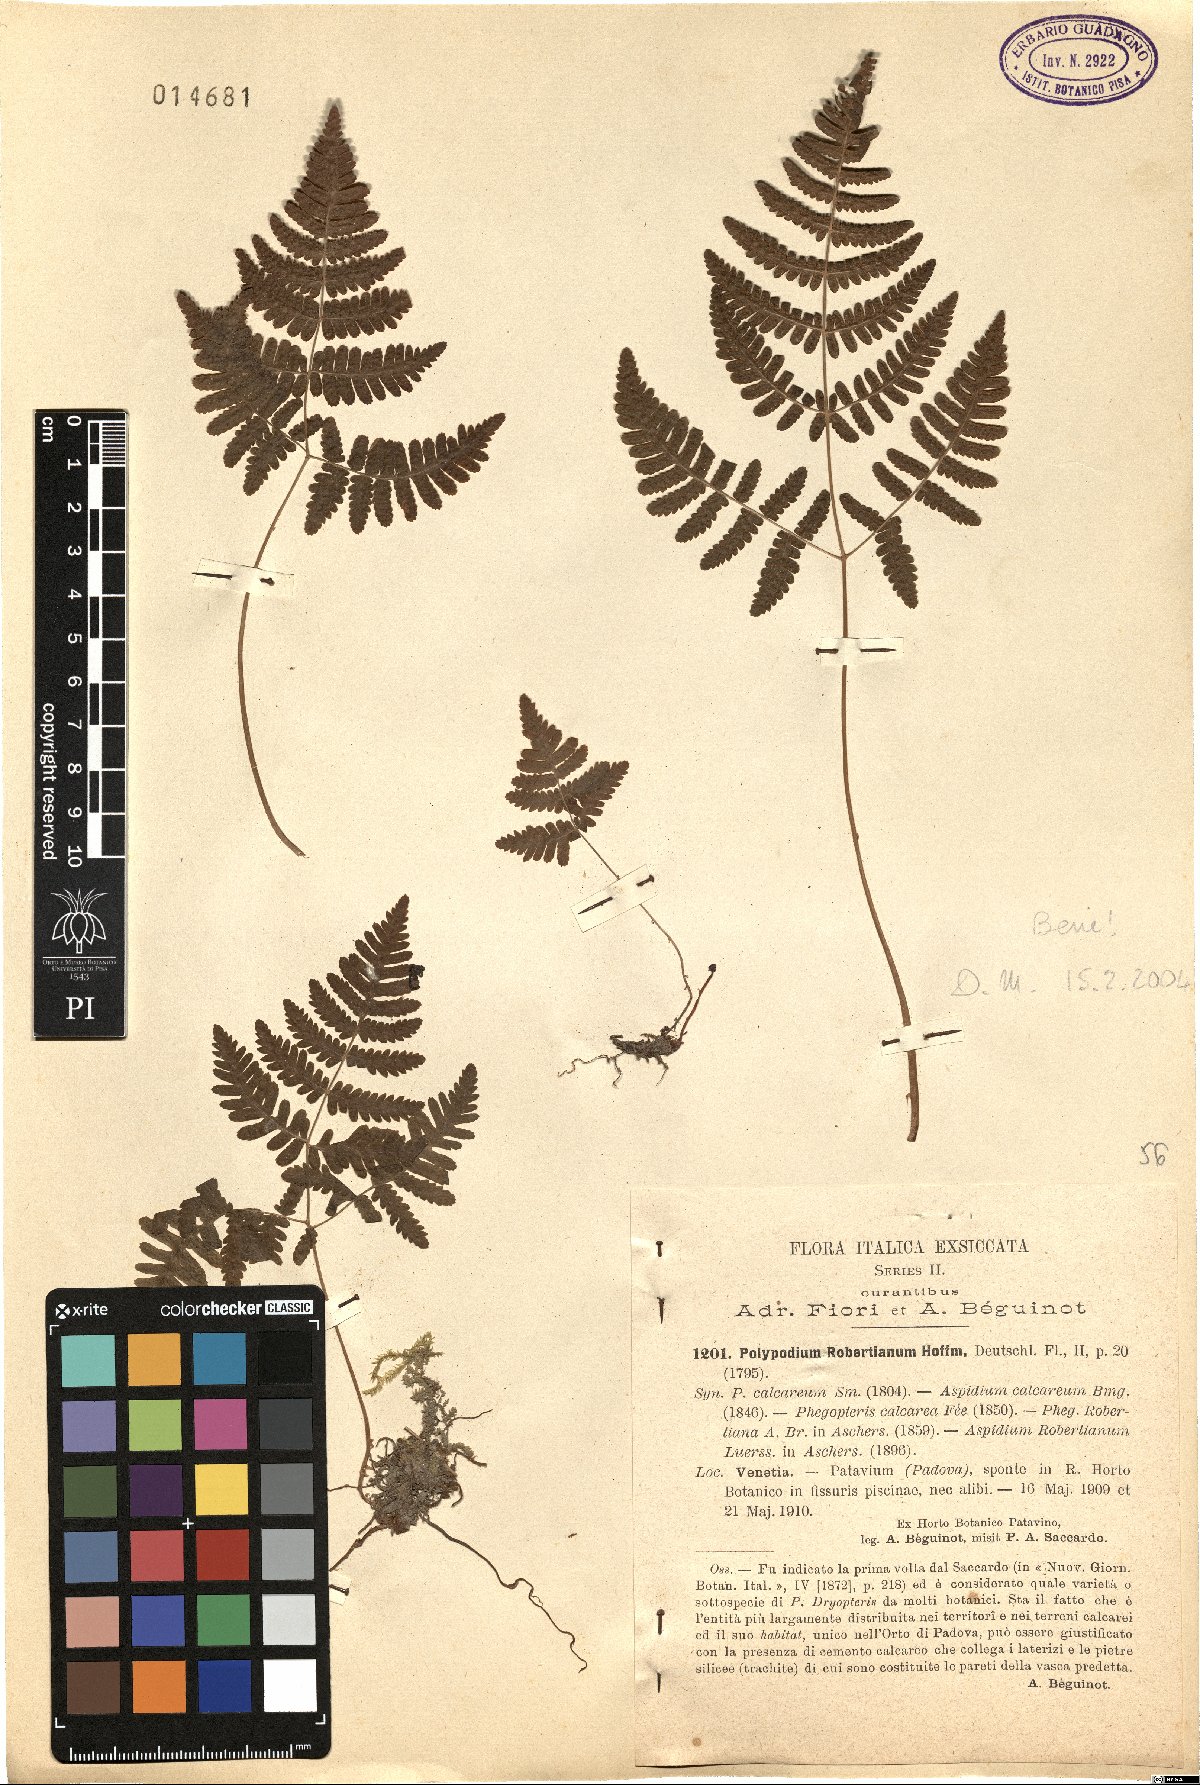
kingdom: Plantae
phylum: Tracheophyta
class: Polypodiopsida
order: Polypodiales
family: Cystopteridaceae
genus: Gymnocarpium
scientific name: Gymnocarpium robertianum
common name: Limestone fern
